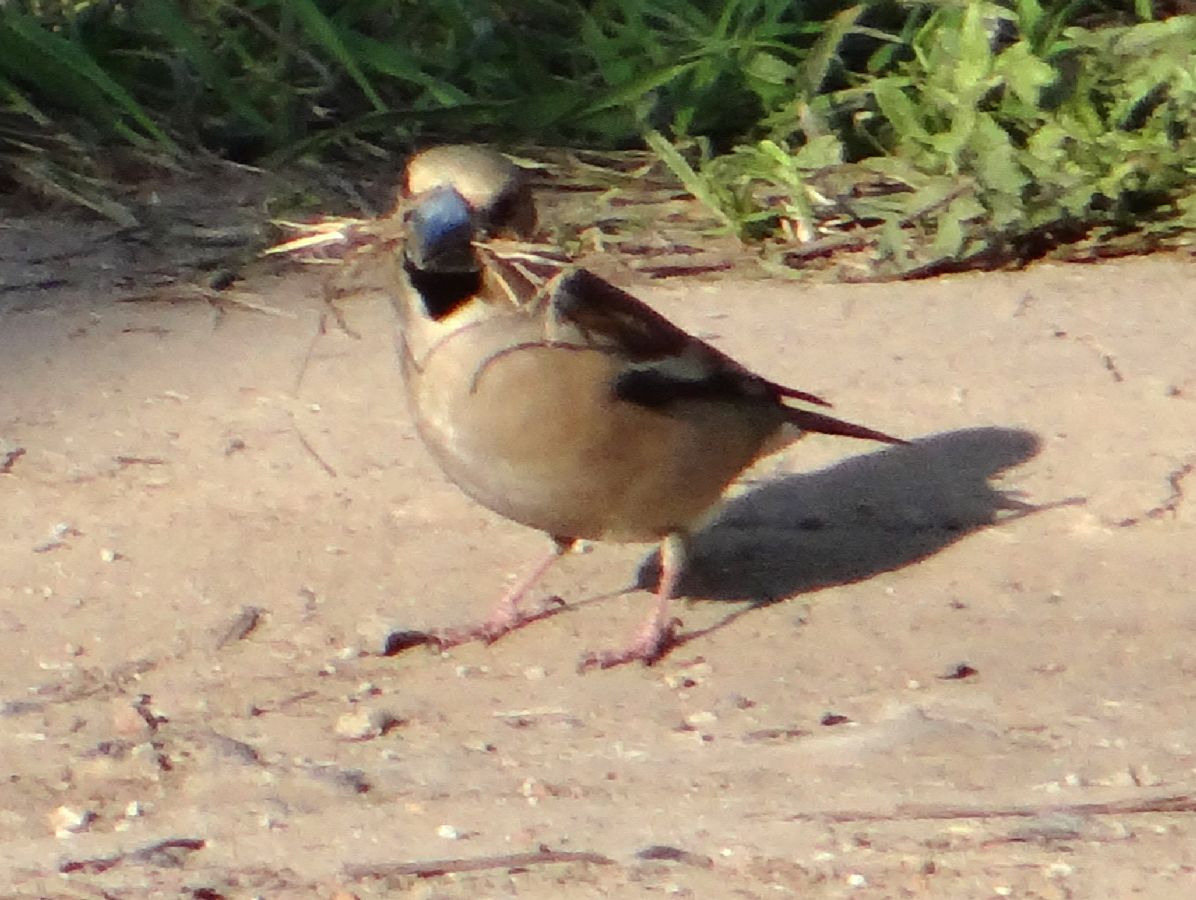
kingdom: Animalia
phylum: Chordata
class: Aves
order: Passeriformes
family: Fringillidae
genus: Coccothraustes
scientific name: Coccothraustes coccothraustes
